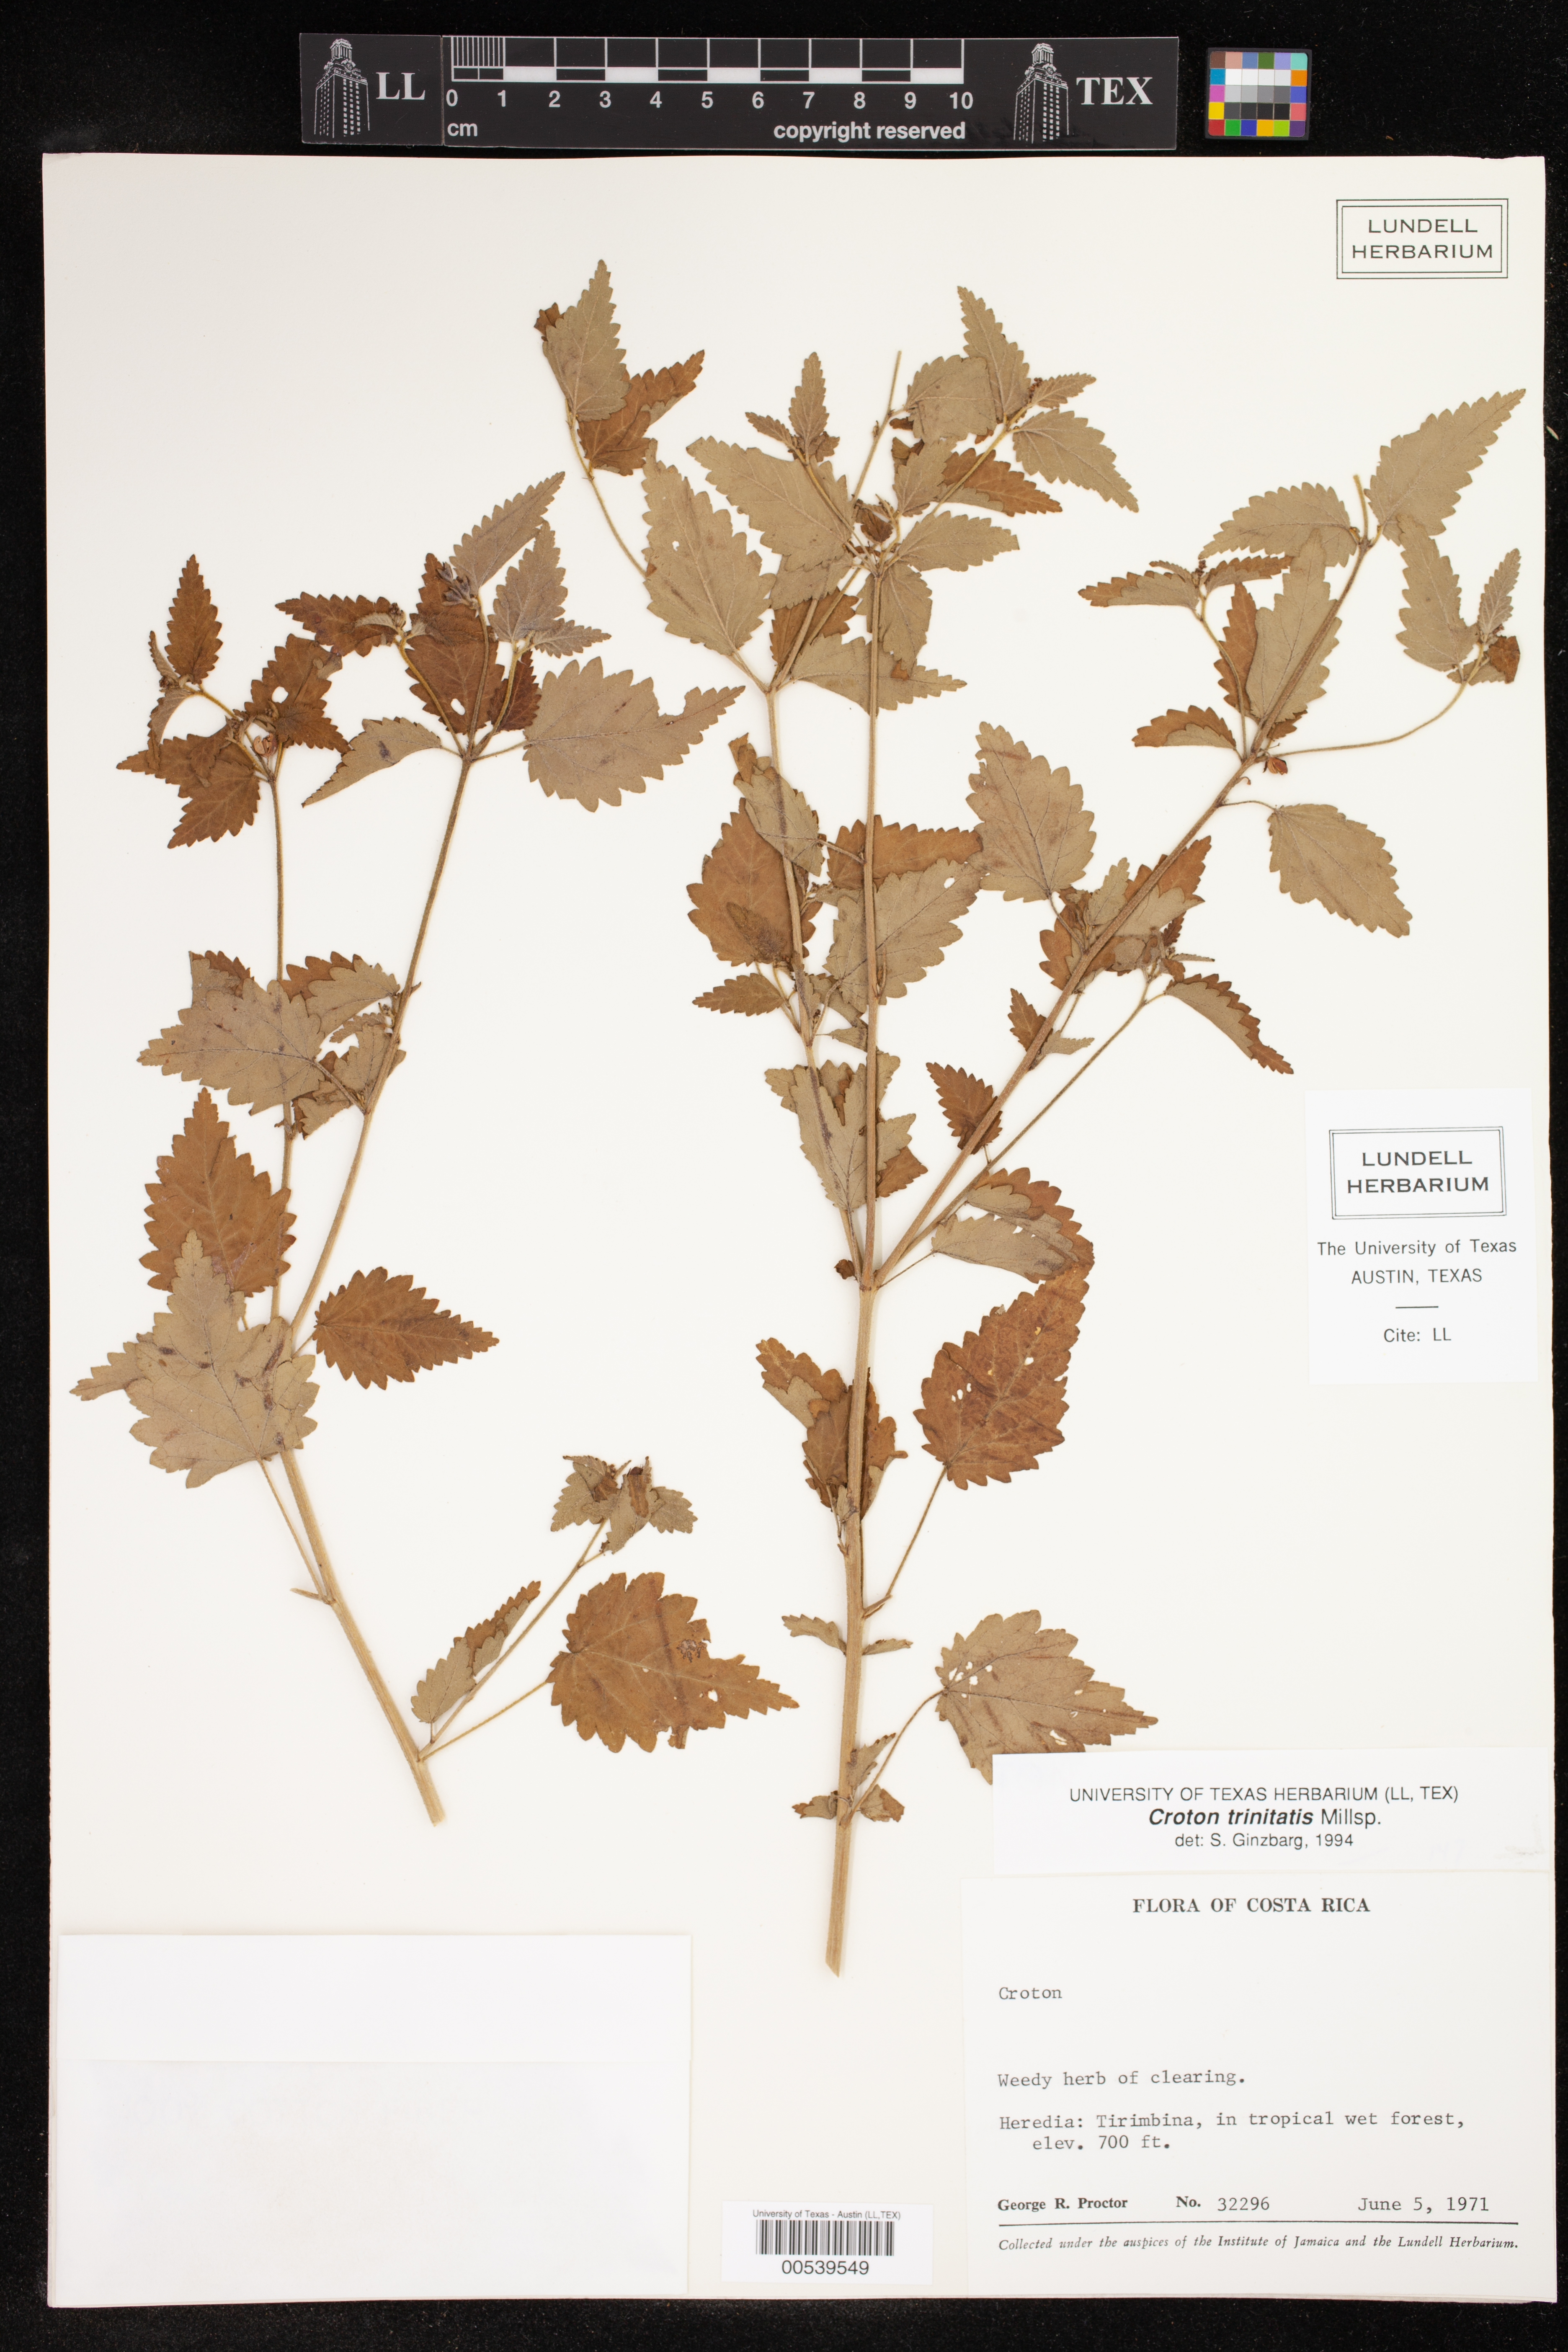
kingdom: Plantae
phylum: Tracheophyta
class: Magnoliopsida
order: Malpighiales
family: Euphorbiaceae
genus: Croton
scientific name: Croton trinitatis
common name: Roadside croton
